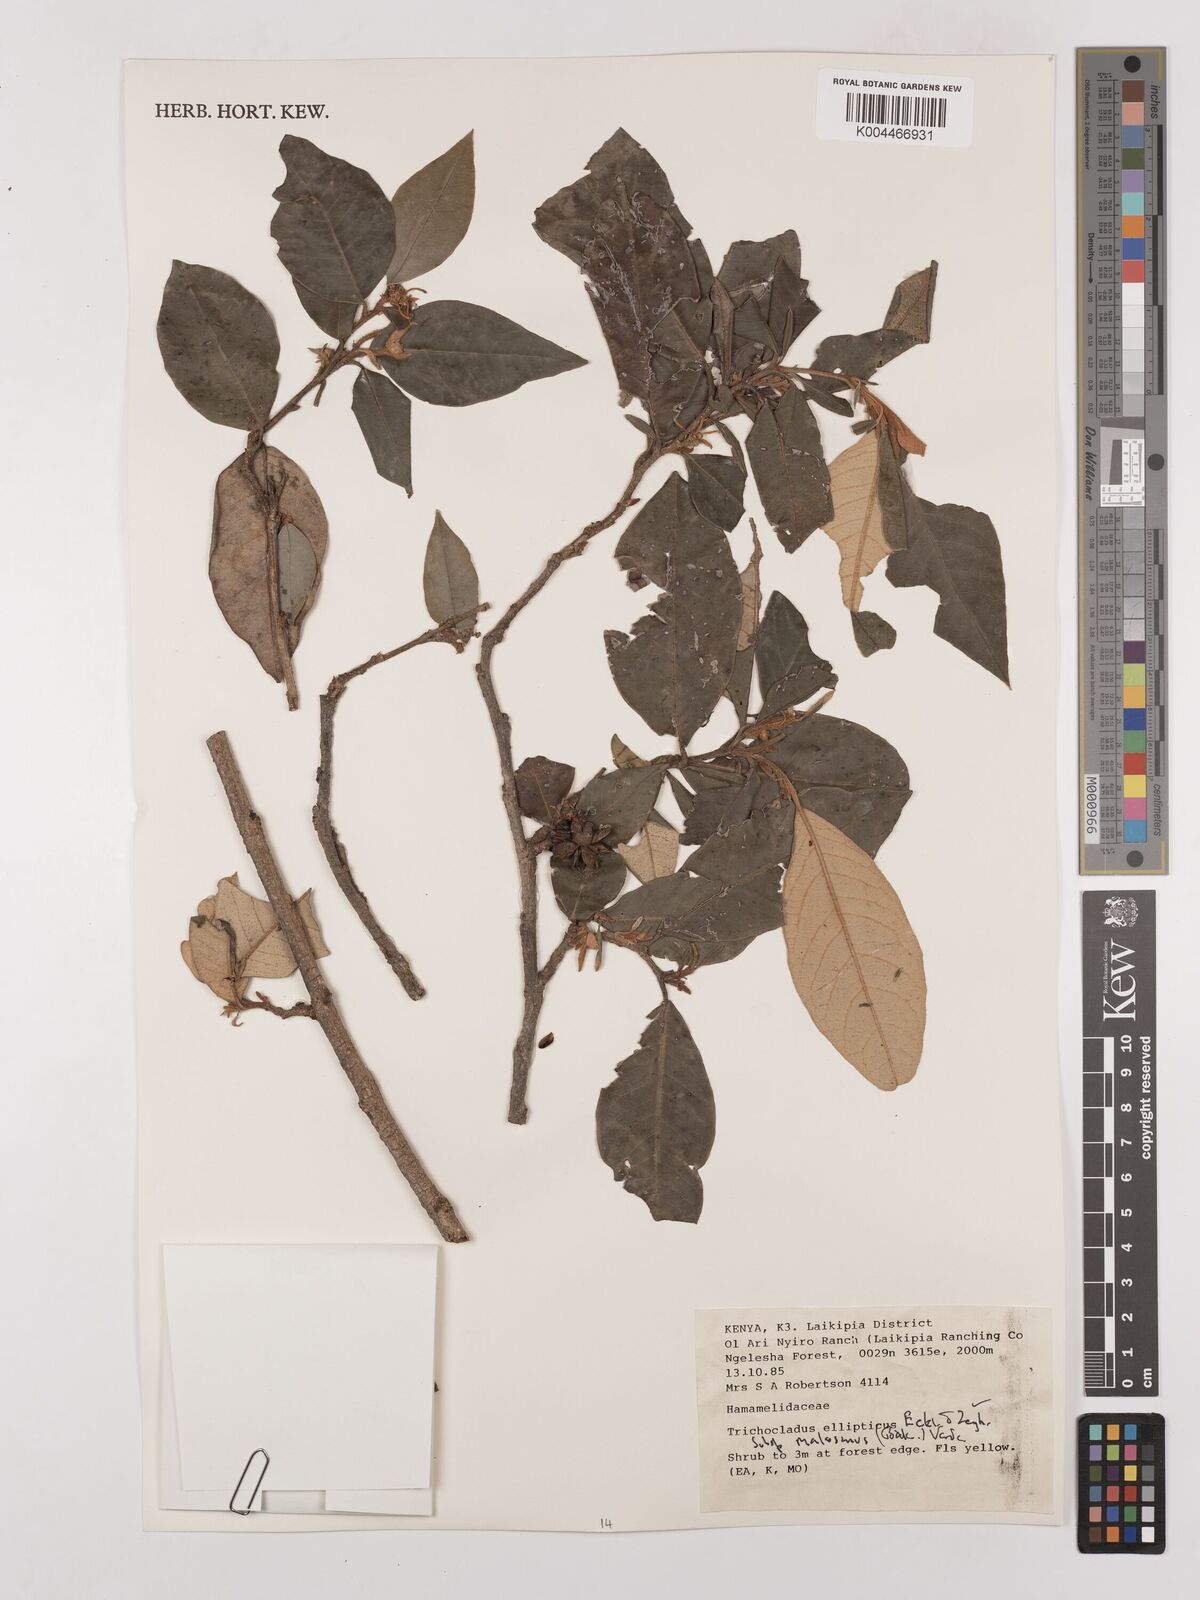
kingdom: Plantae
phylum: Tracheophyta
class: Magnoliopsida
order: Saxifragales
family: Hamamelidaceae
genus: Trichocladus
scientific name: Trichocladus ellipticus
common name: White witch-hazel
